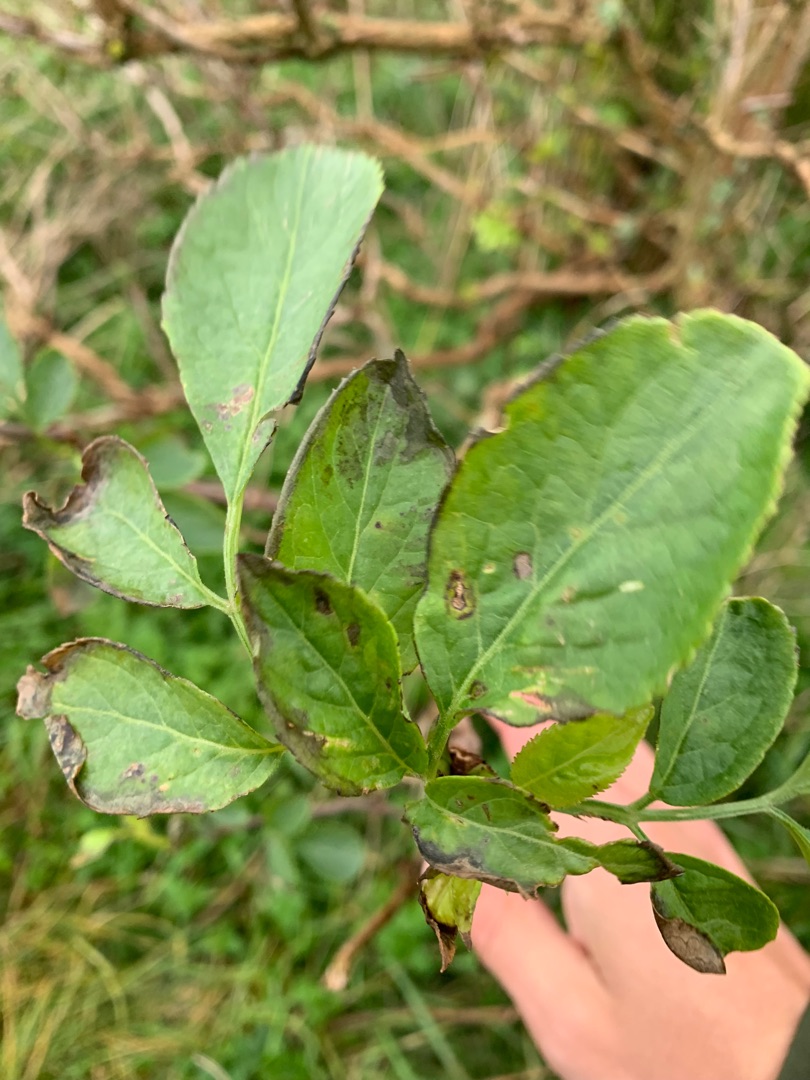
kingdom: Plantae
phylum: Tracheophyta
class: Magnoliopsida
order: Dipsacales
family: Viburnaceae
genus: Sambucus
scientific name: Sambucus nigra
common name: Almindelig hyld
